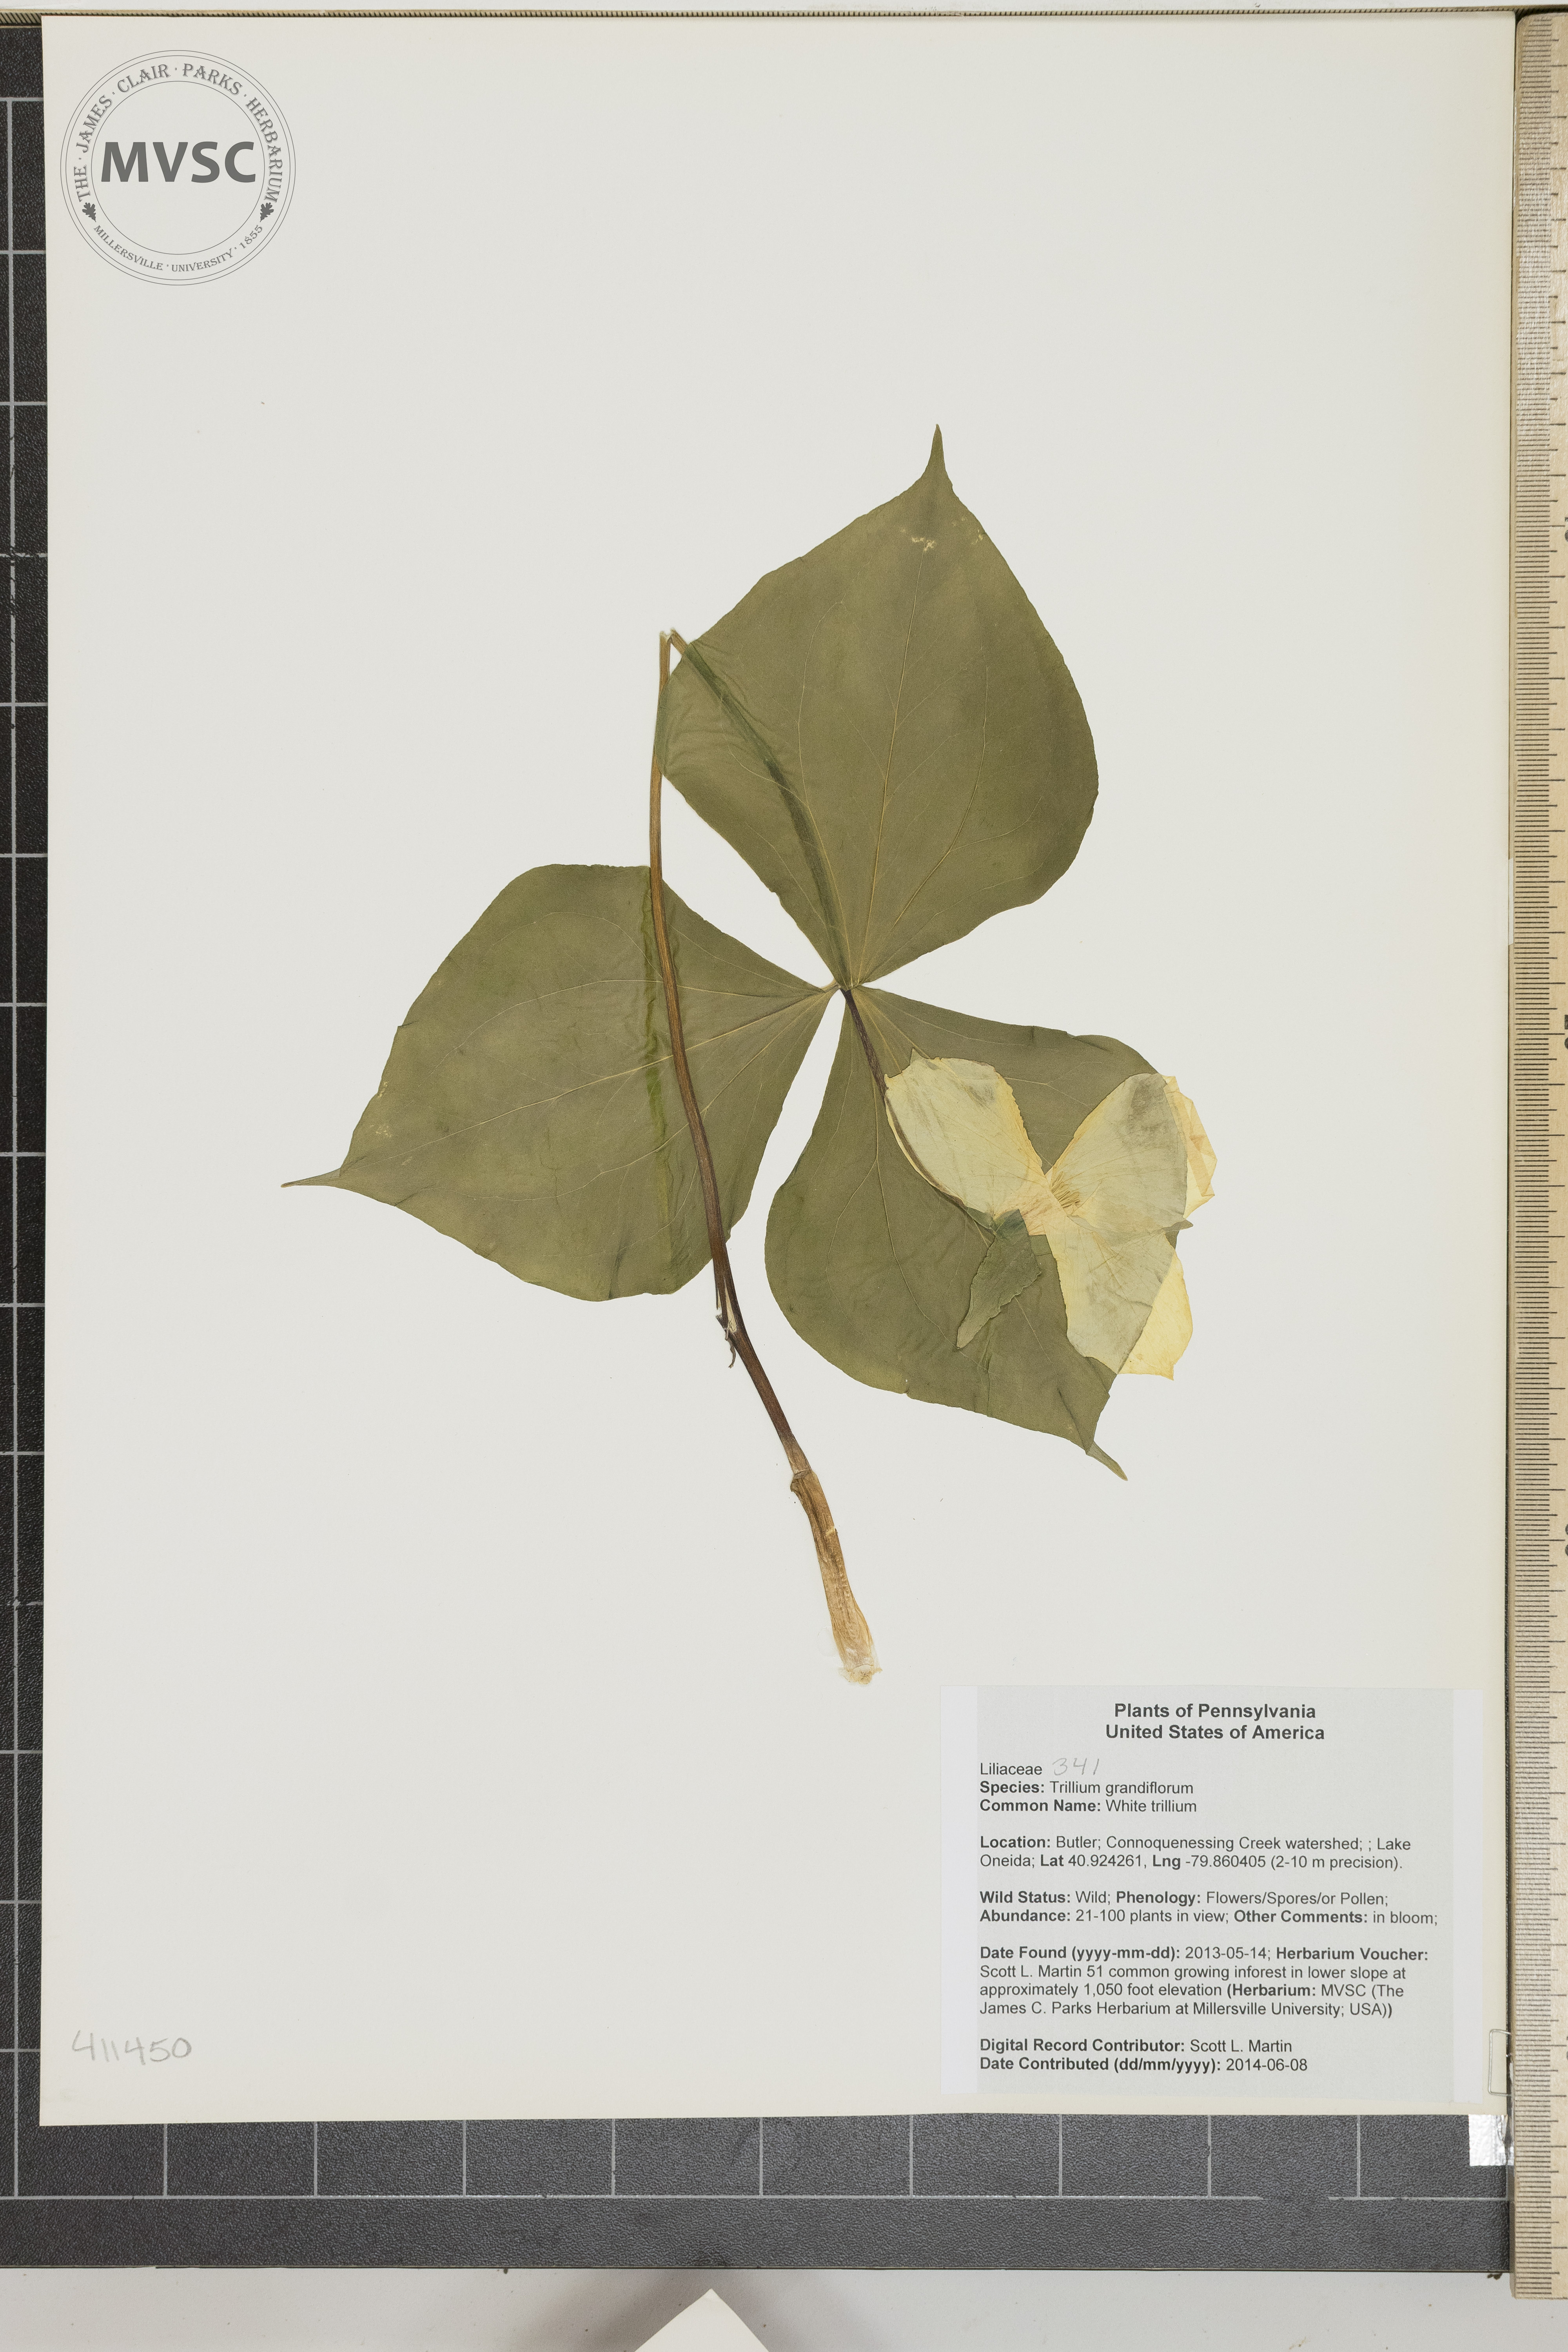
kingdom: Plantae
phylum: Tracheophyta
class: Liliopsida
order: Liliales
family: Melanthiaceae
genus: Trillium
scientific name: Trillium grandiflorum
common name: White trillium
